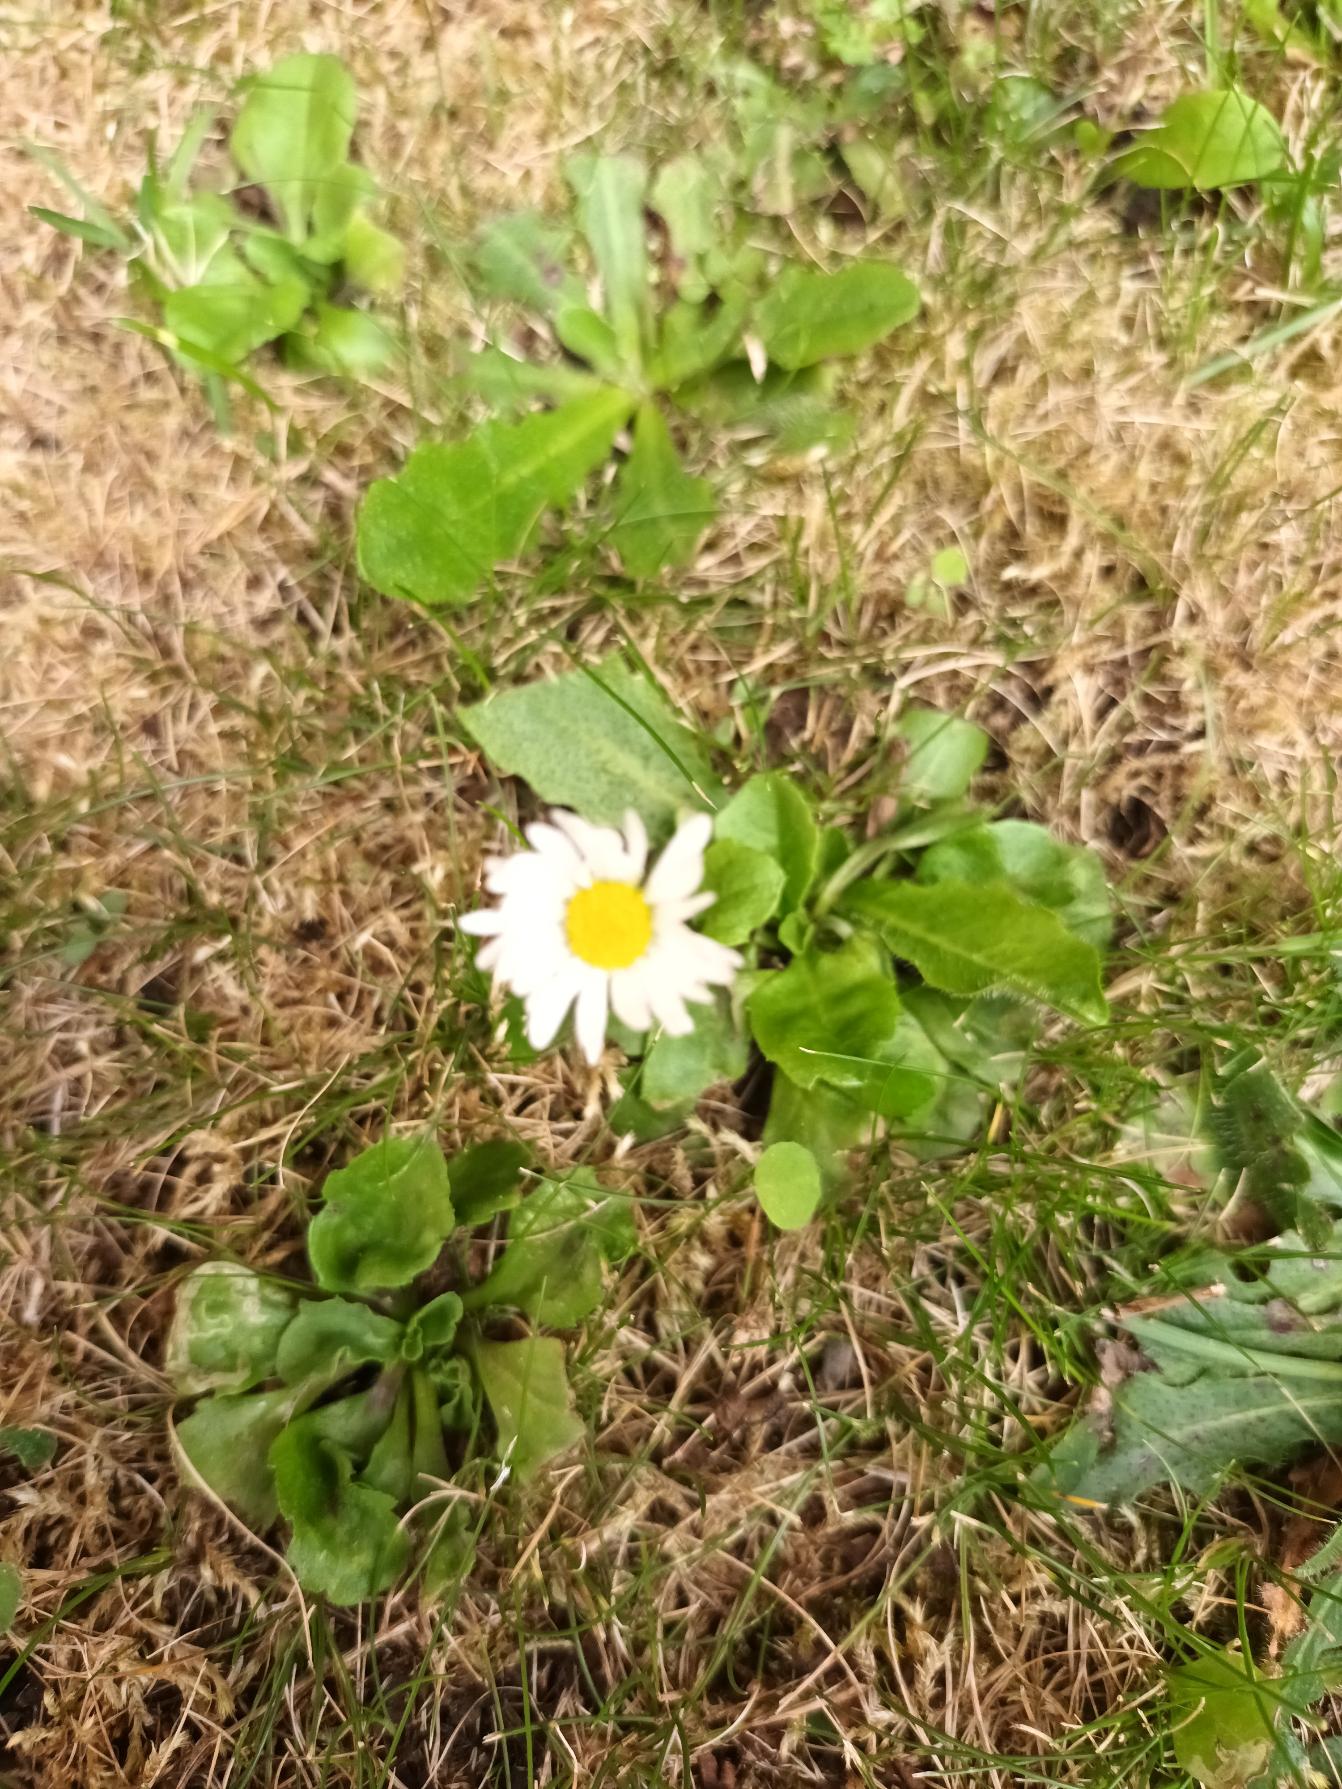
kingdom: Plantae
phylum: Tracheophyta
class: Magnoliopsida
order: Asterales
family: Asteraceae
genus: Bellis
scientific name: Bellis perennis
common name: Tusindfryd
